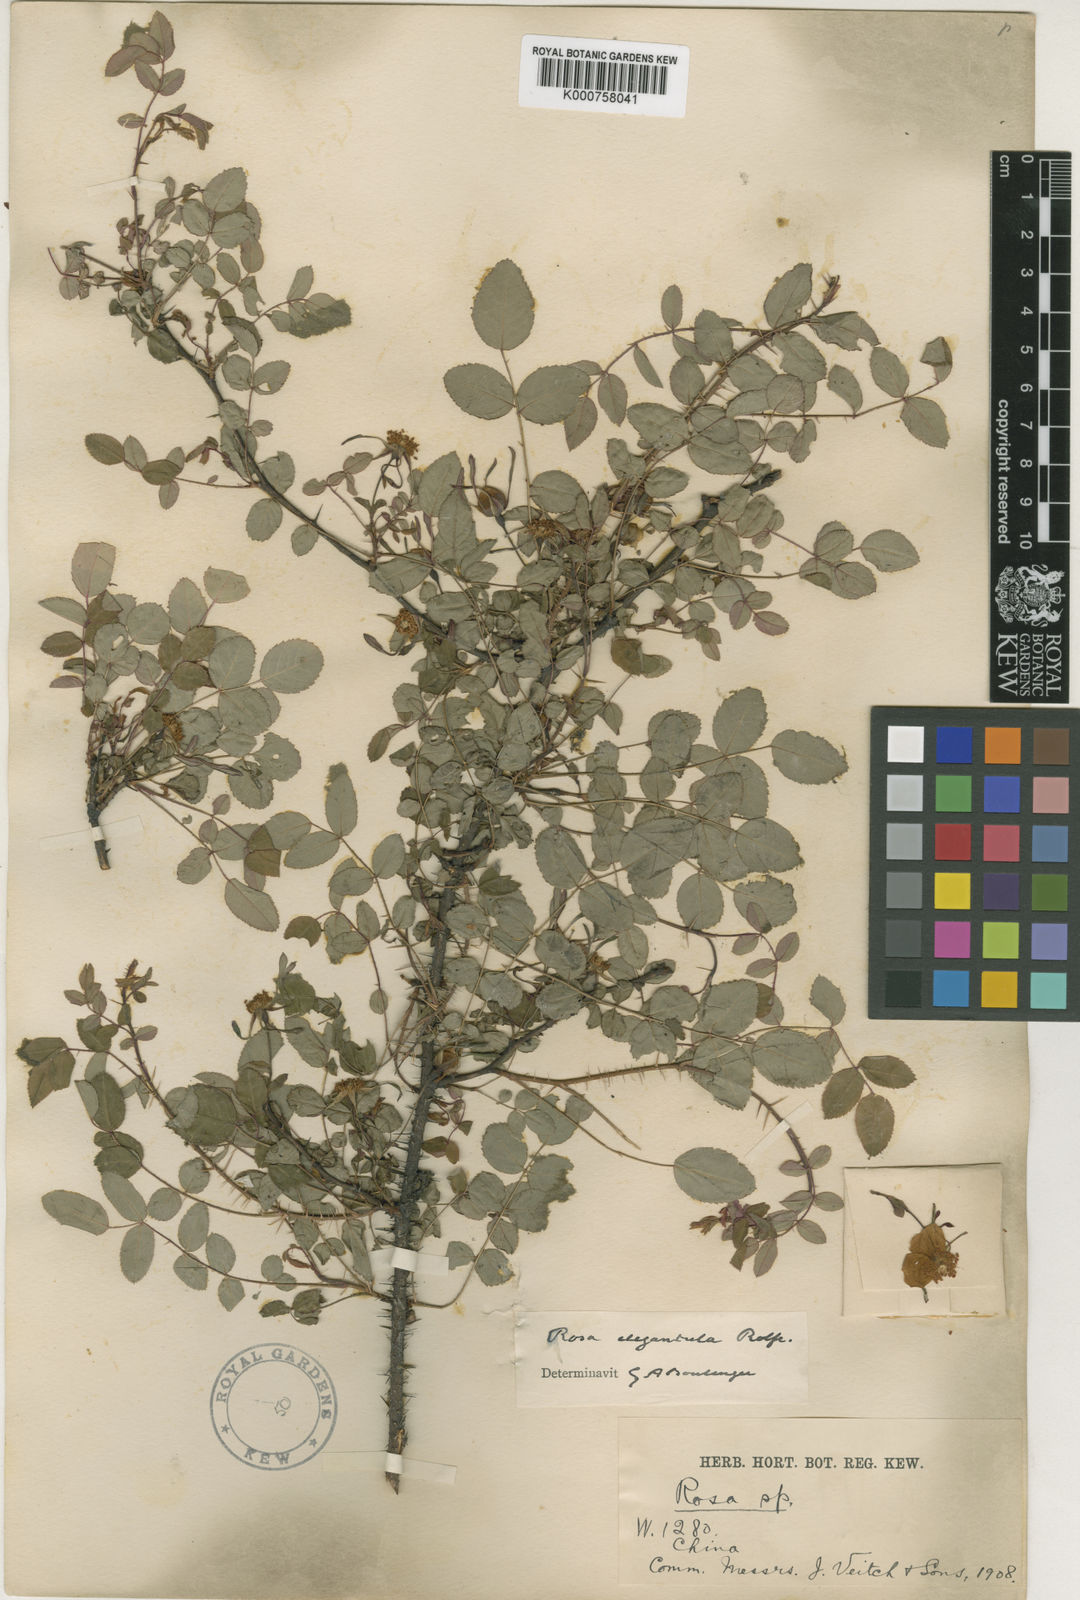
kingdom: Plantae
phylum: Tracheophyta
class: Magnoliopsida
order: Rosales
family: Rosaceae
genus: Rosa
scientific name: Rosa persetosa
